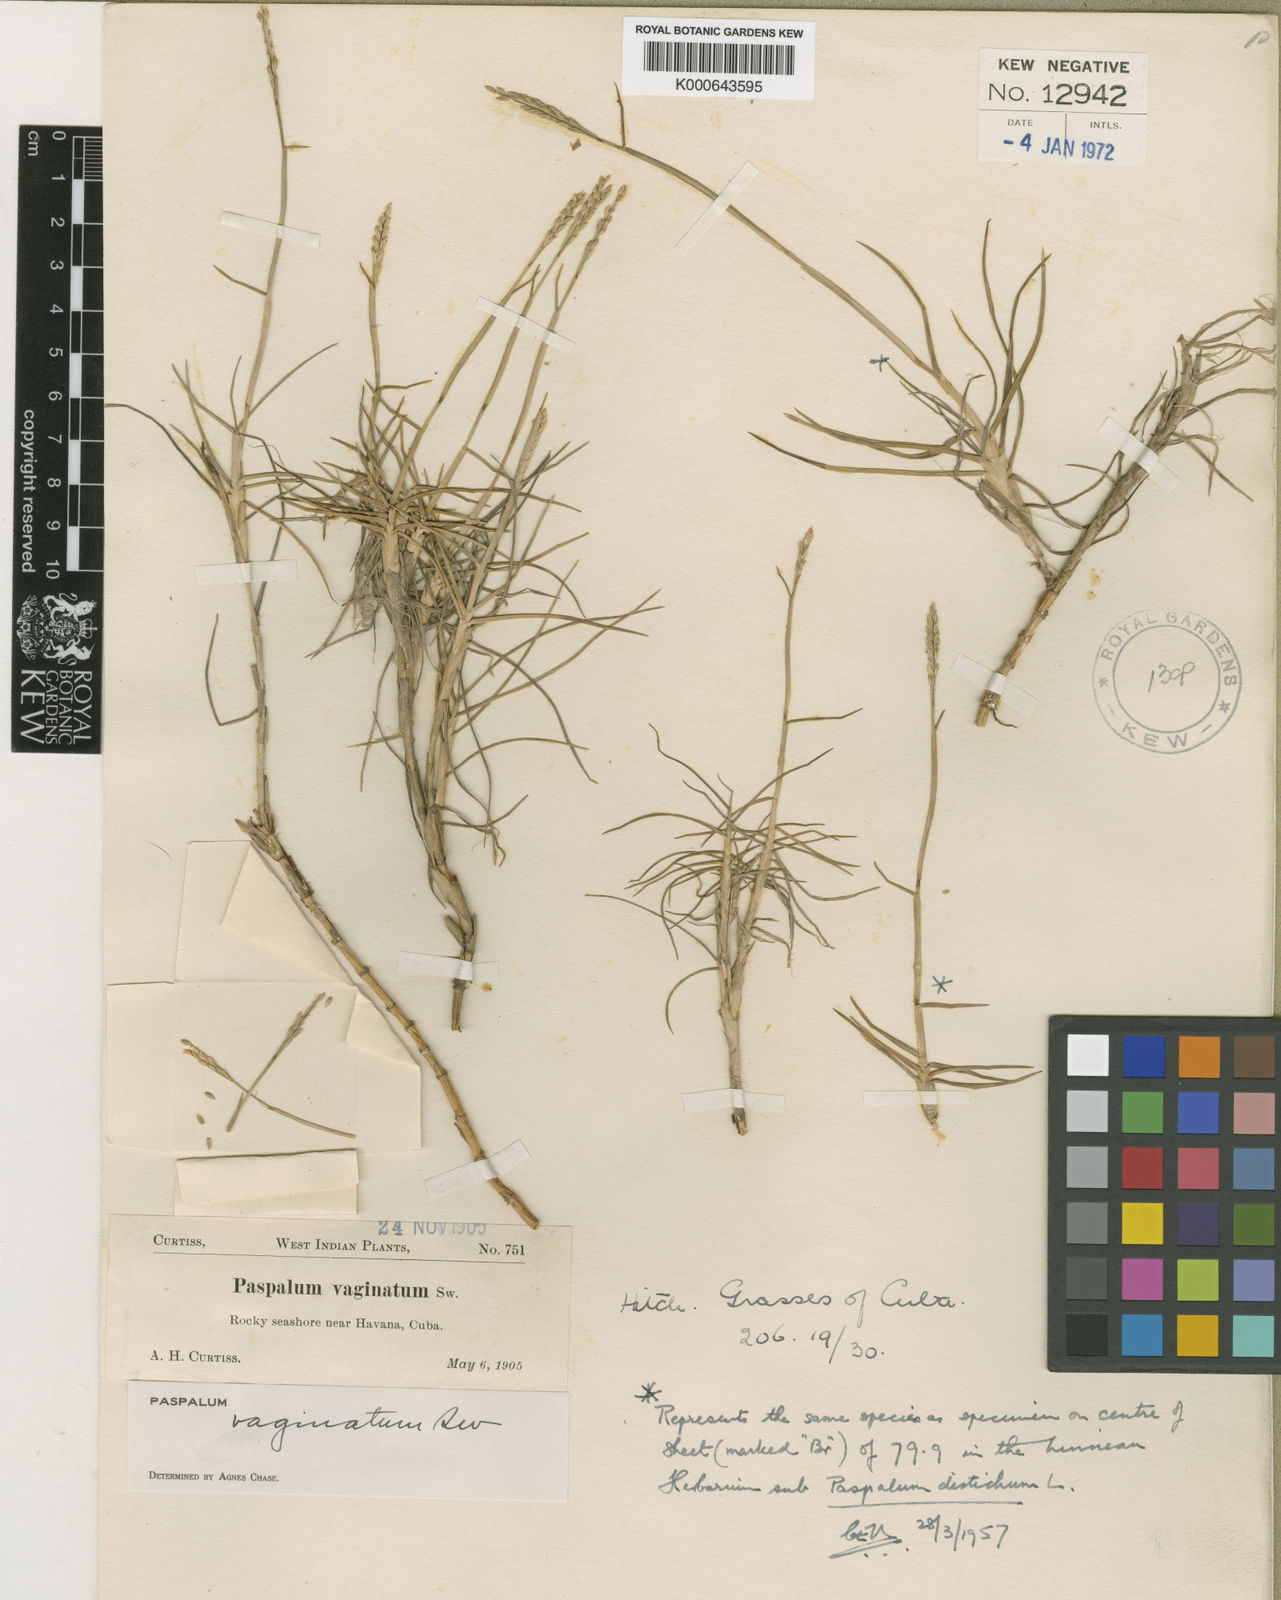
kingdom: Plantae
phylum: Tracheophyta
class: Liliopsida
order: Poales
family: Poaceae
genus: Paspalum
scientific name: Paspalum vaginatum
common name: Seashore paspalum
